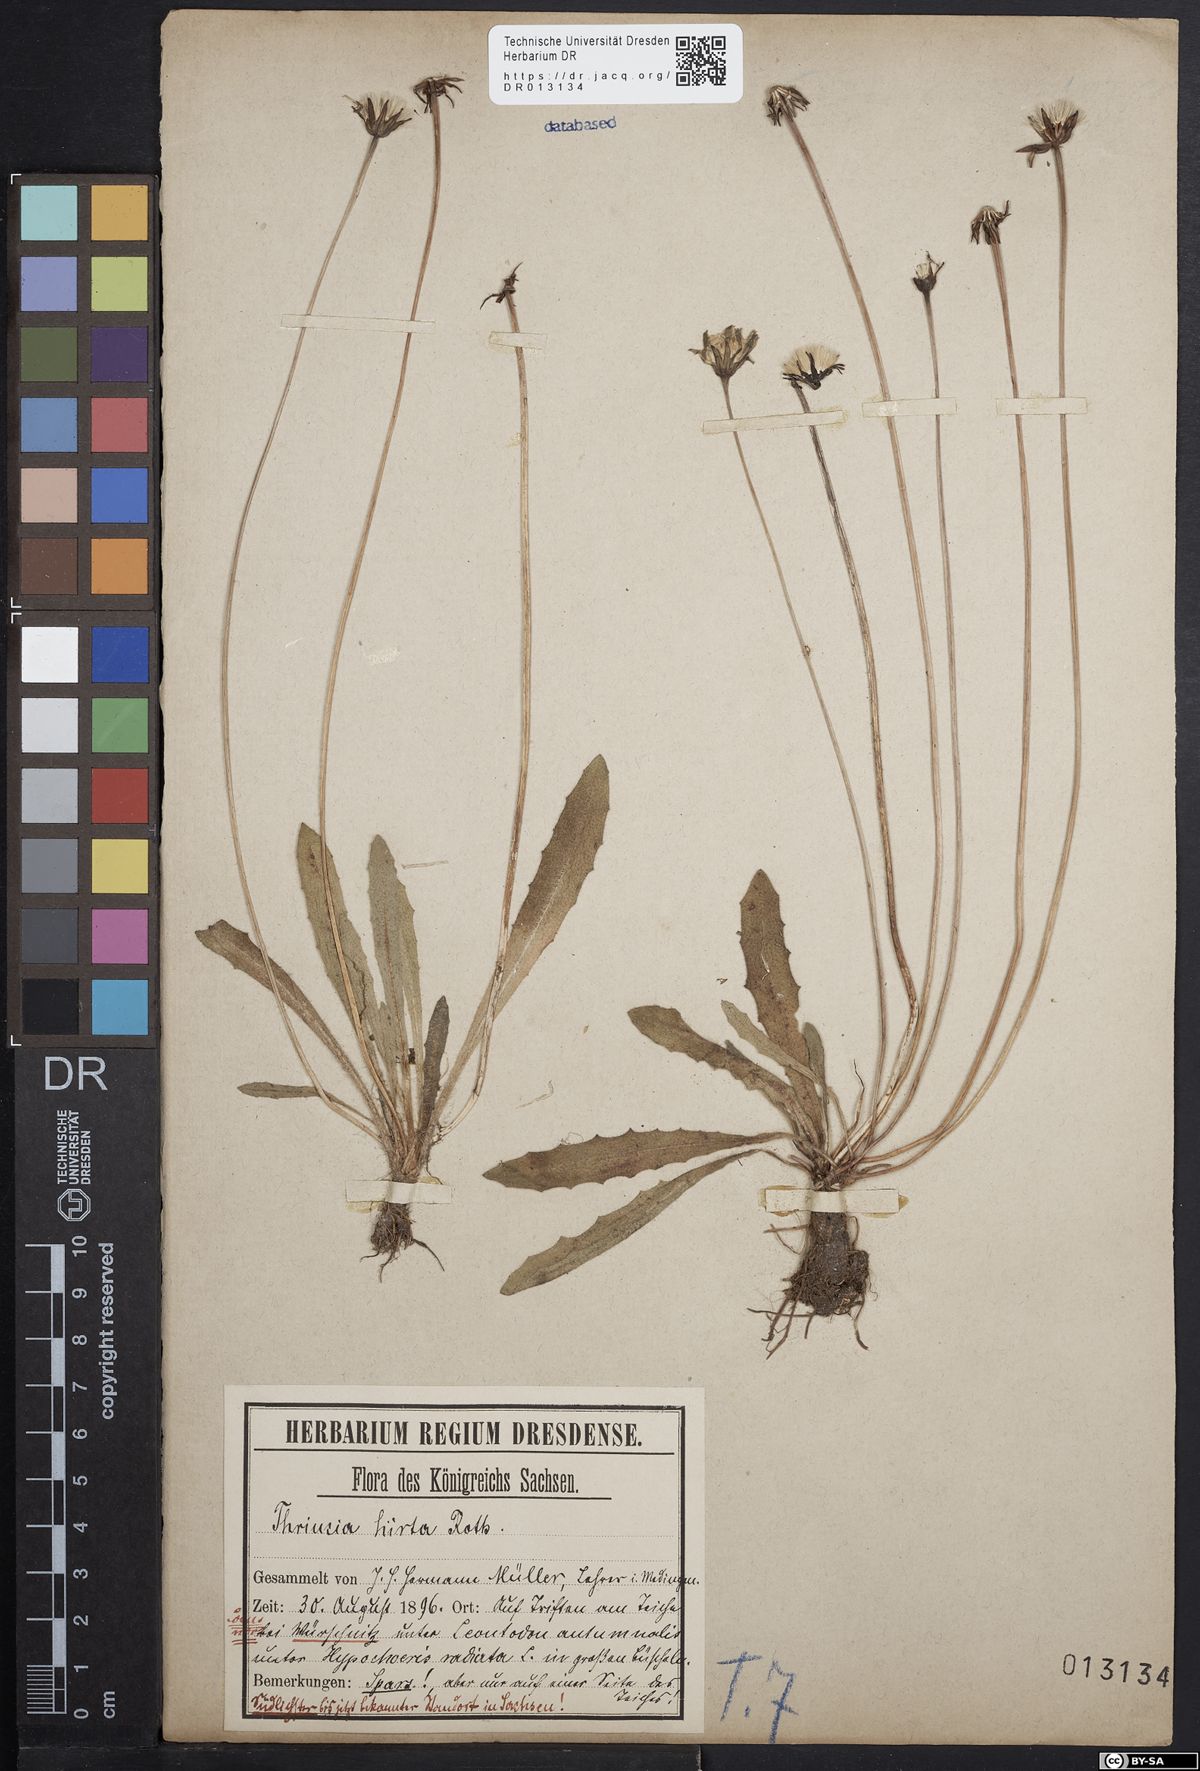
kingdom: Plantae
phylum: Tracheophyta
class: Magnoliopsida
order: Asterales
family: Asteraceae
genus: Thrincia
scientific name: Thrincia saxatilis
